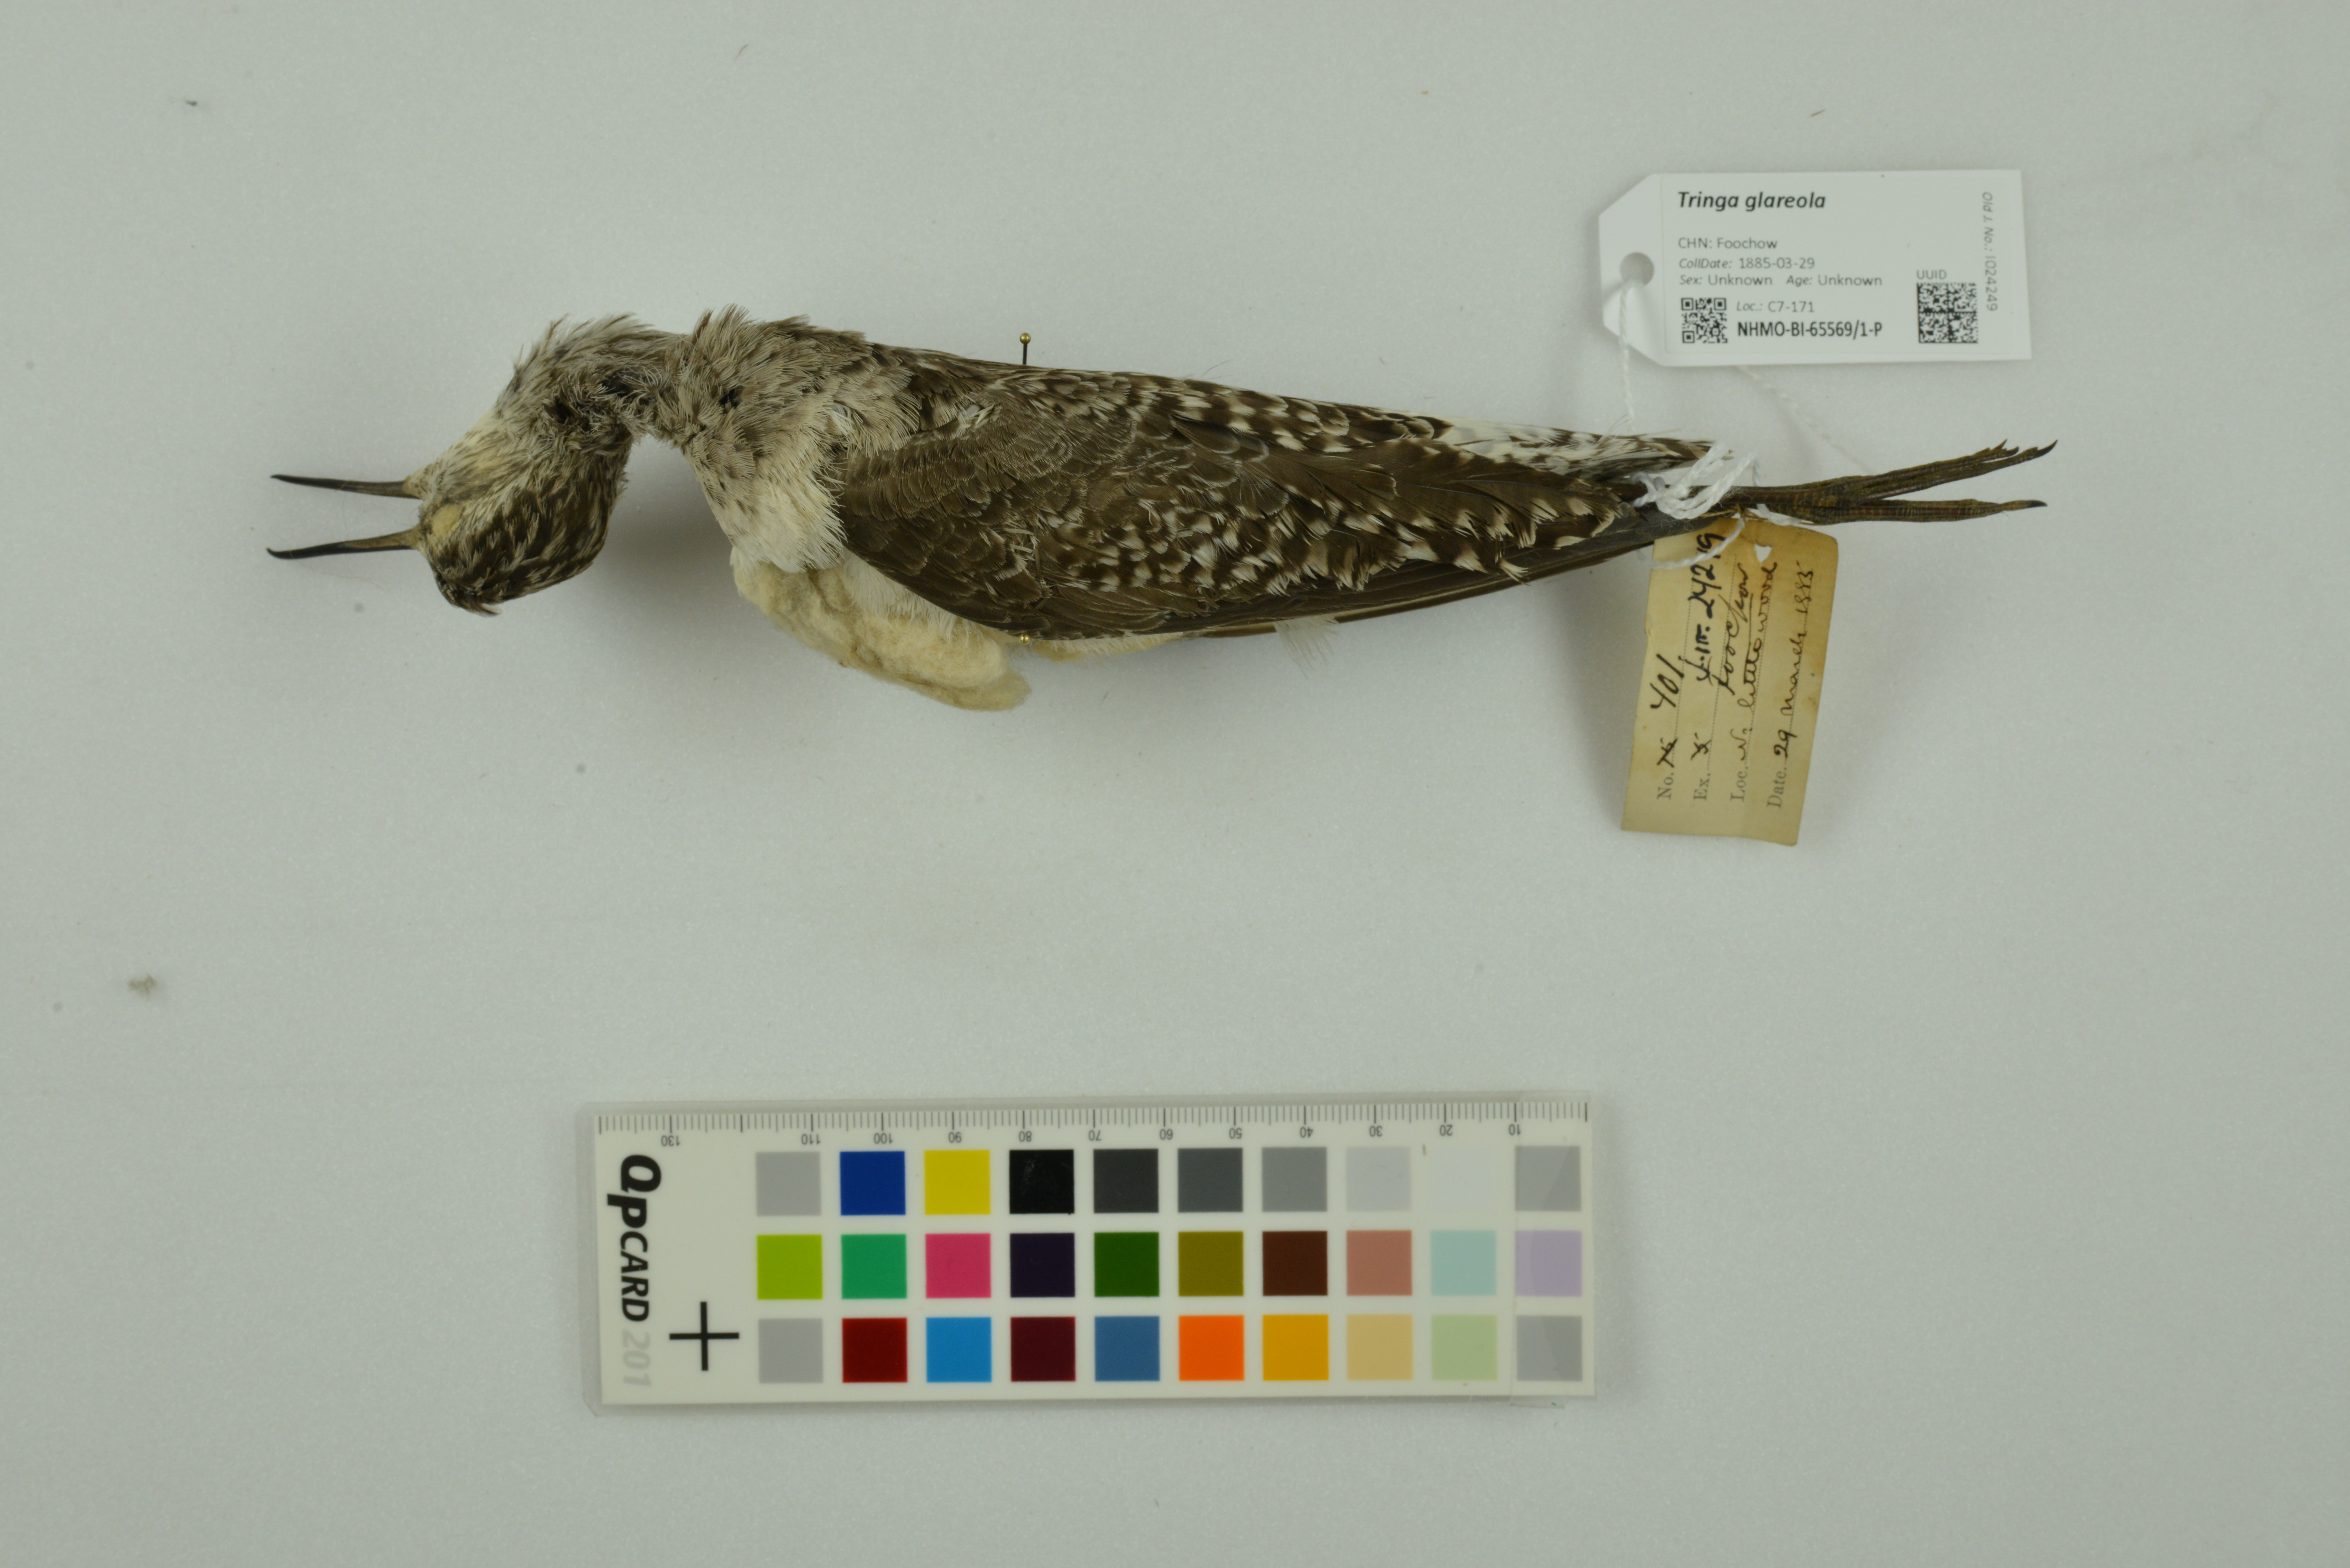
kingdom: Animalia
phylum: Chordata
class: Aves
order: Charadriiformes
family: Scolopacidae
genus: Tringa
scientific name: Tringa glareola
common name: Wood sandpiper
